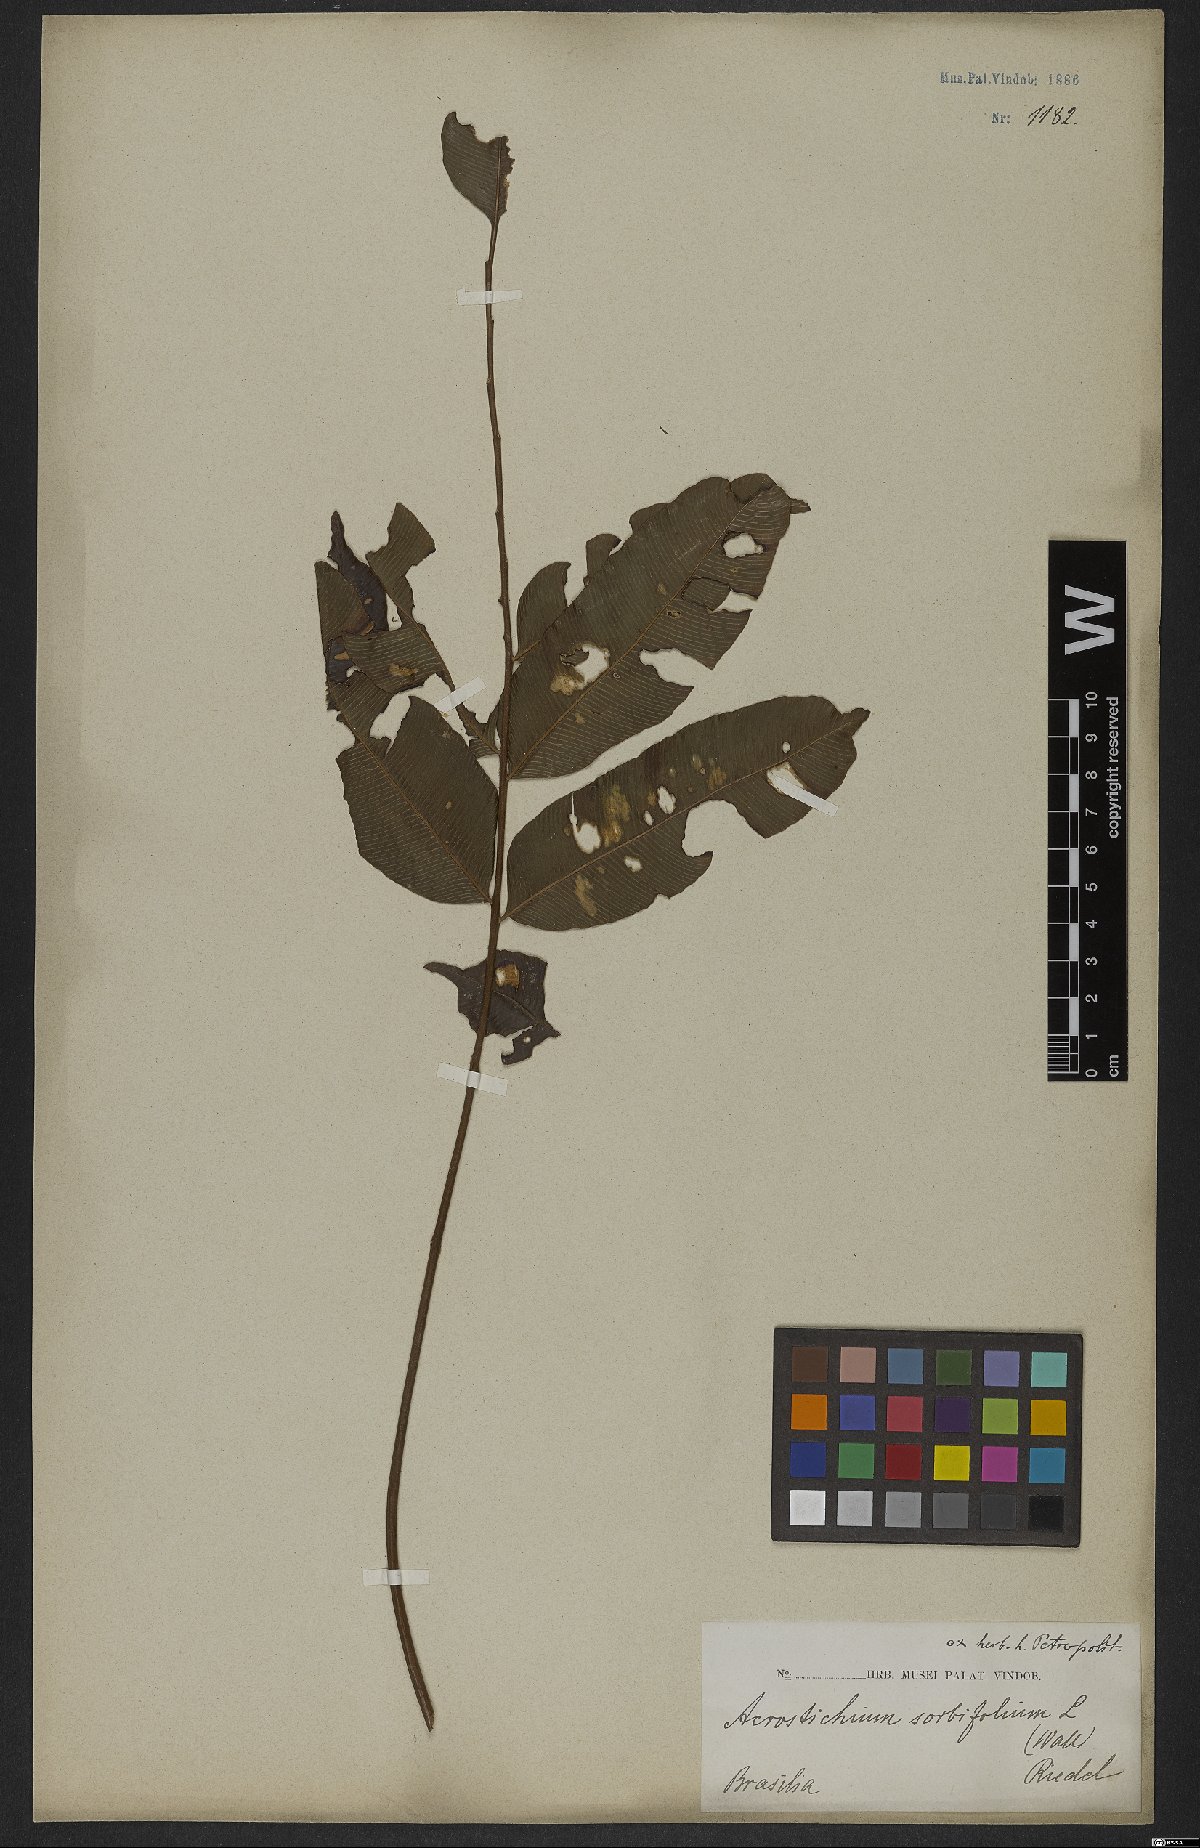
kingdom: Plantae
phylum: Tracheophyta
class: Polypodiopsida
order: Polypodiales
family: Blechnaceae
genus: Stenochlaena
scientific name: Stenochlaena
